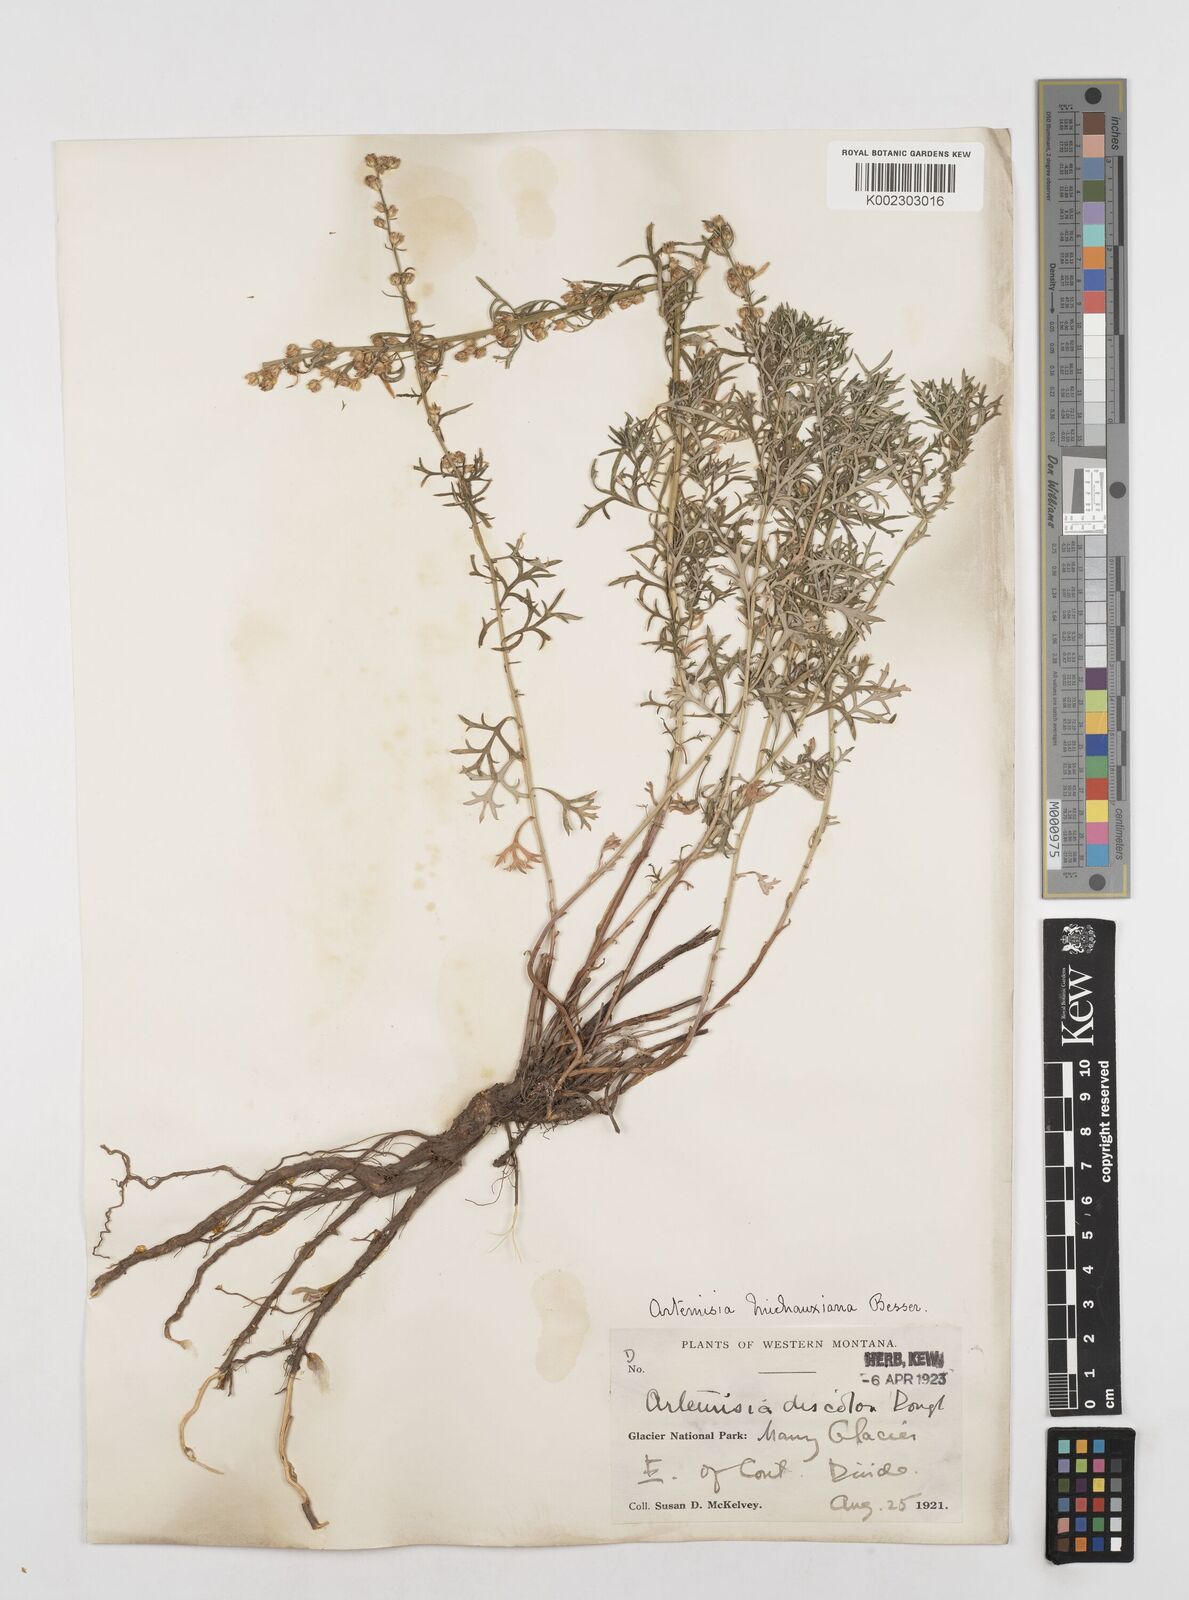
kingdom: Plantae
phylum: Tracheophyta
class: Magnoliopsida
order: Asterales
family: Asteraceae
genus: Artemisia
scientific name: Artemisia michauxiana
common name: Lemon sagewort
